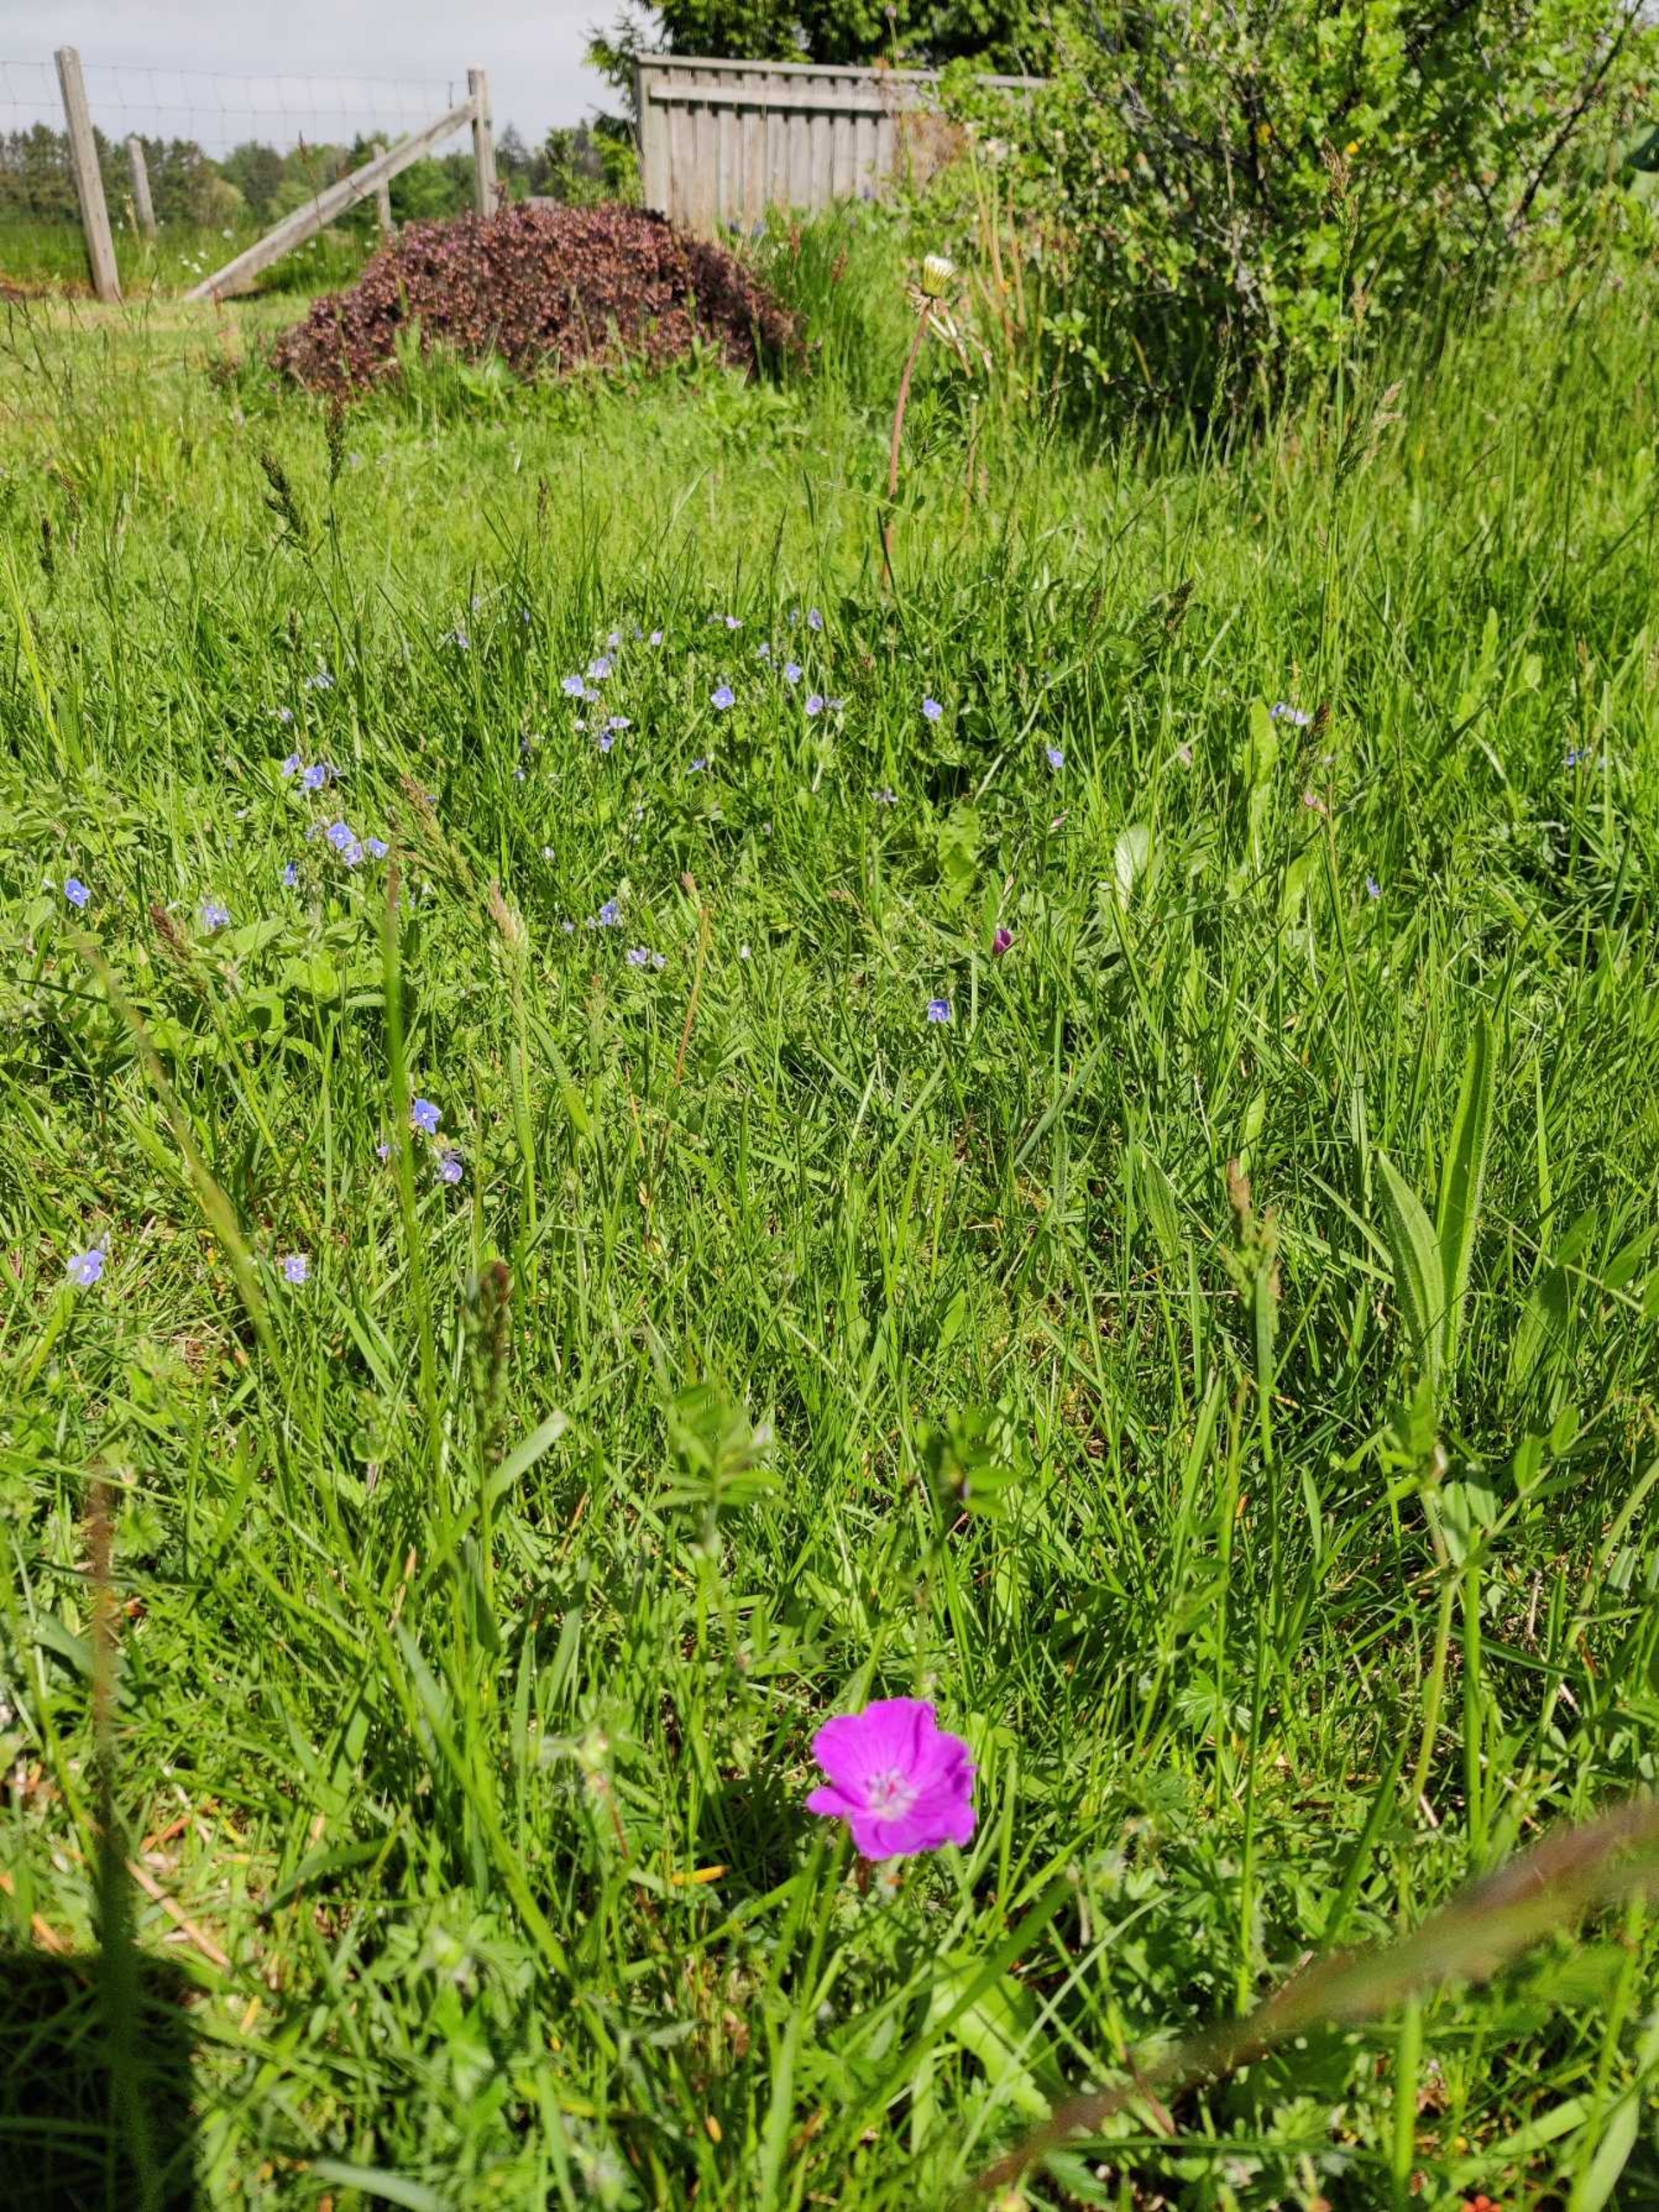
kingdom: Plantae
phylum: Tracheophyta
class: Magnoliopsida
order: Geraniales
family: Geraniaceae
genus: Geranium
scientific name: Geranium sanguineum
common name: Blodrød storkenæb
